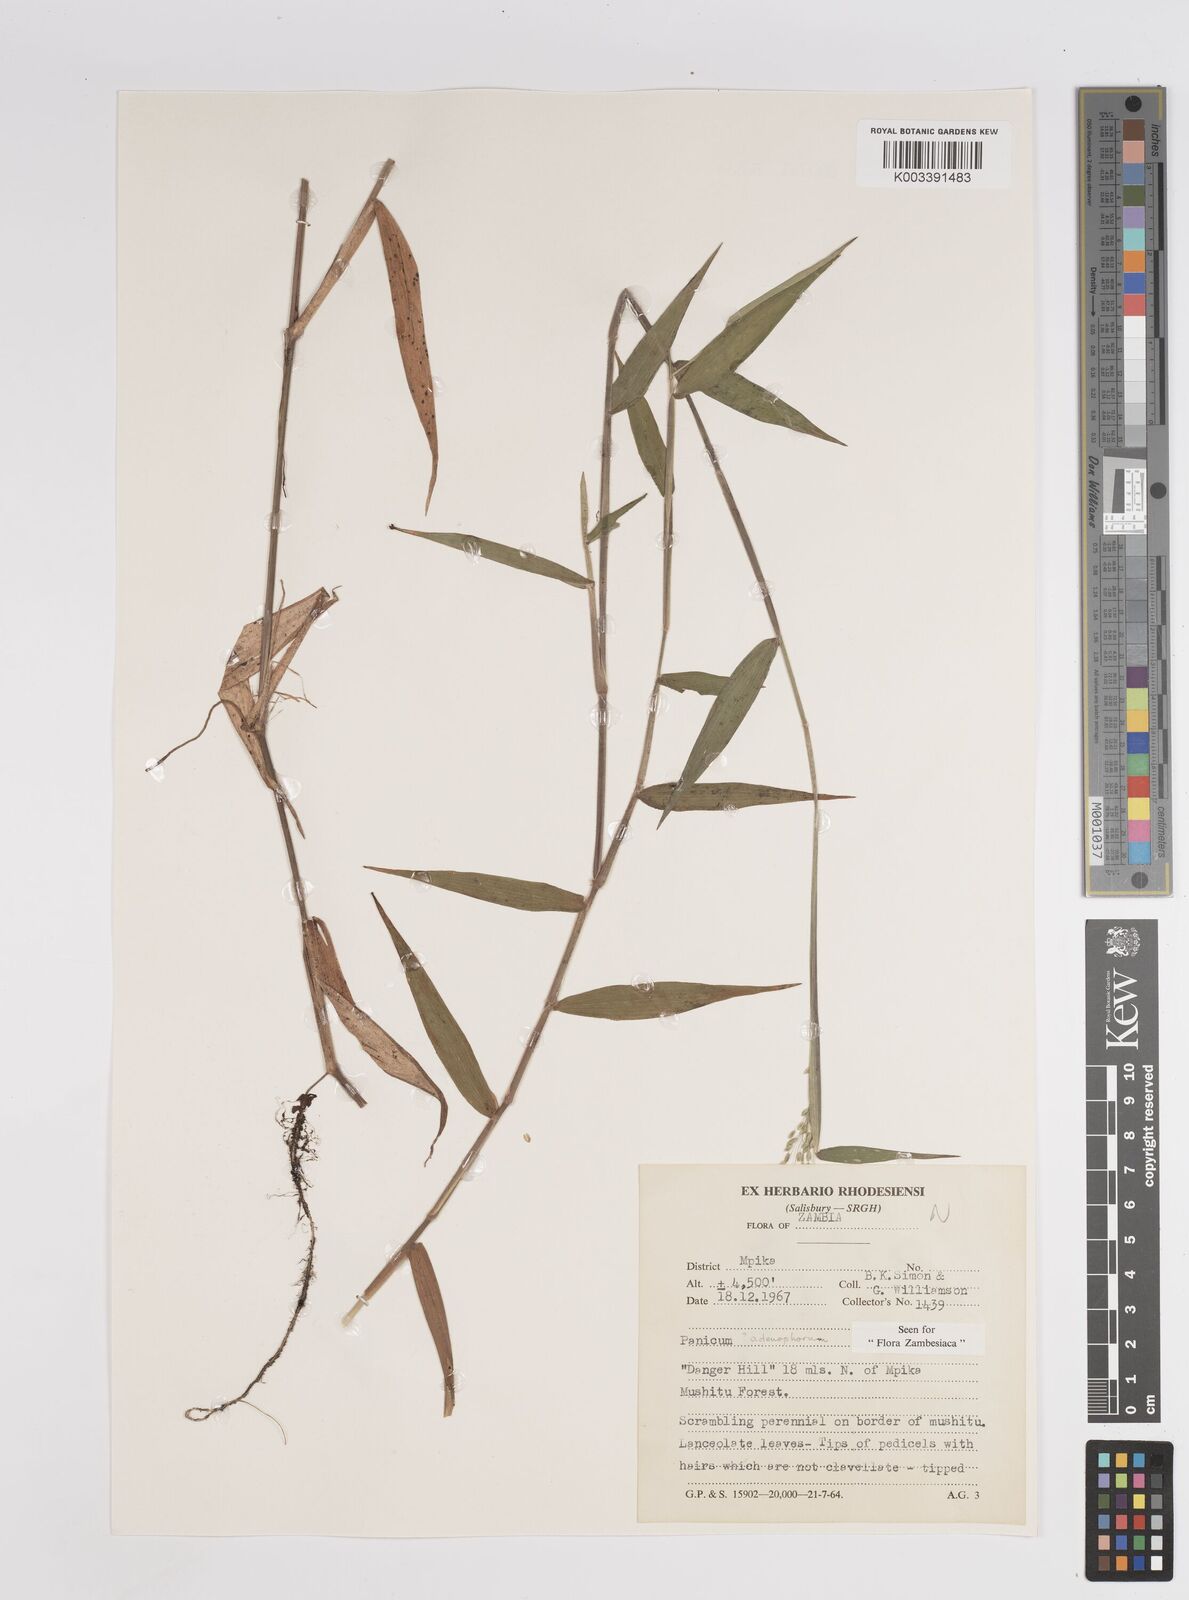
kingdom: Plantae
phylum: Tracheophyta
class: Liliopsida
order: Poales
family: Poaceae
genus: Adenochloa
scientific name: Adenochloa adenophora
